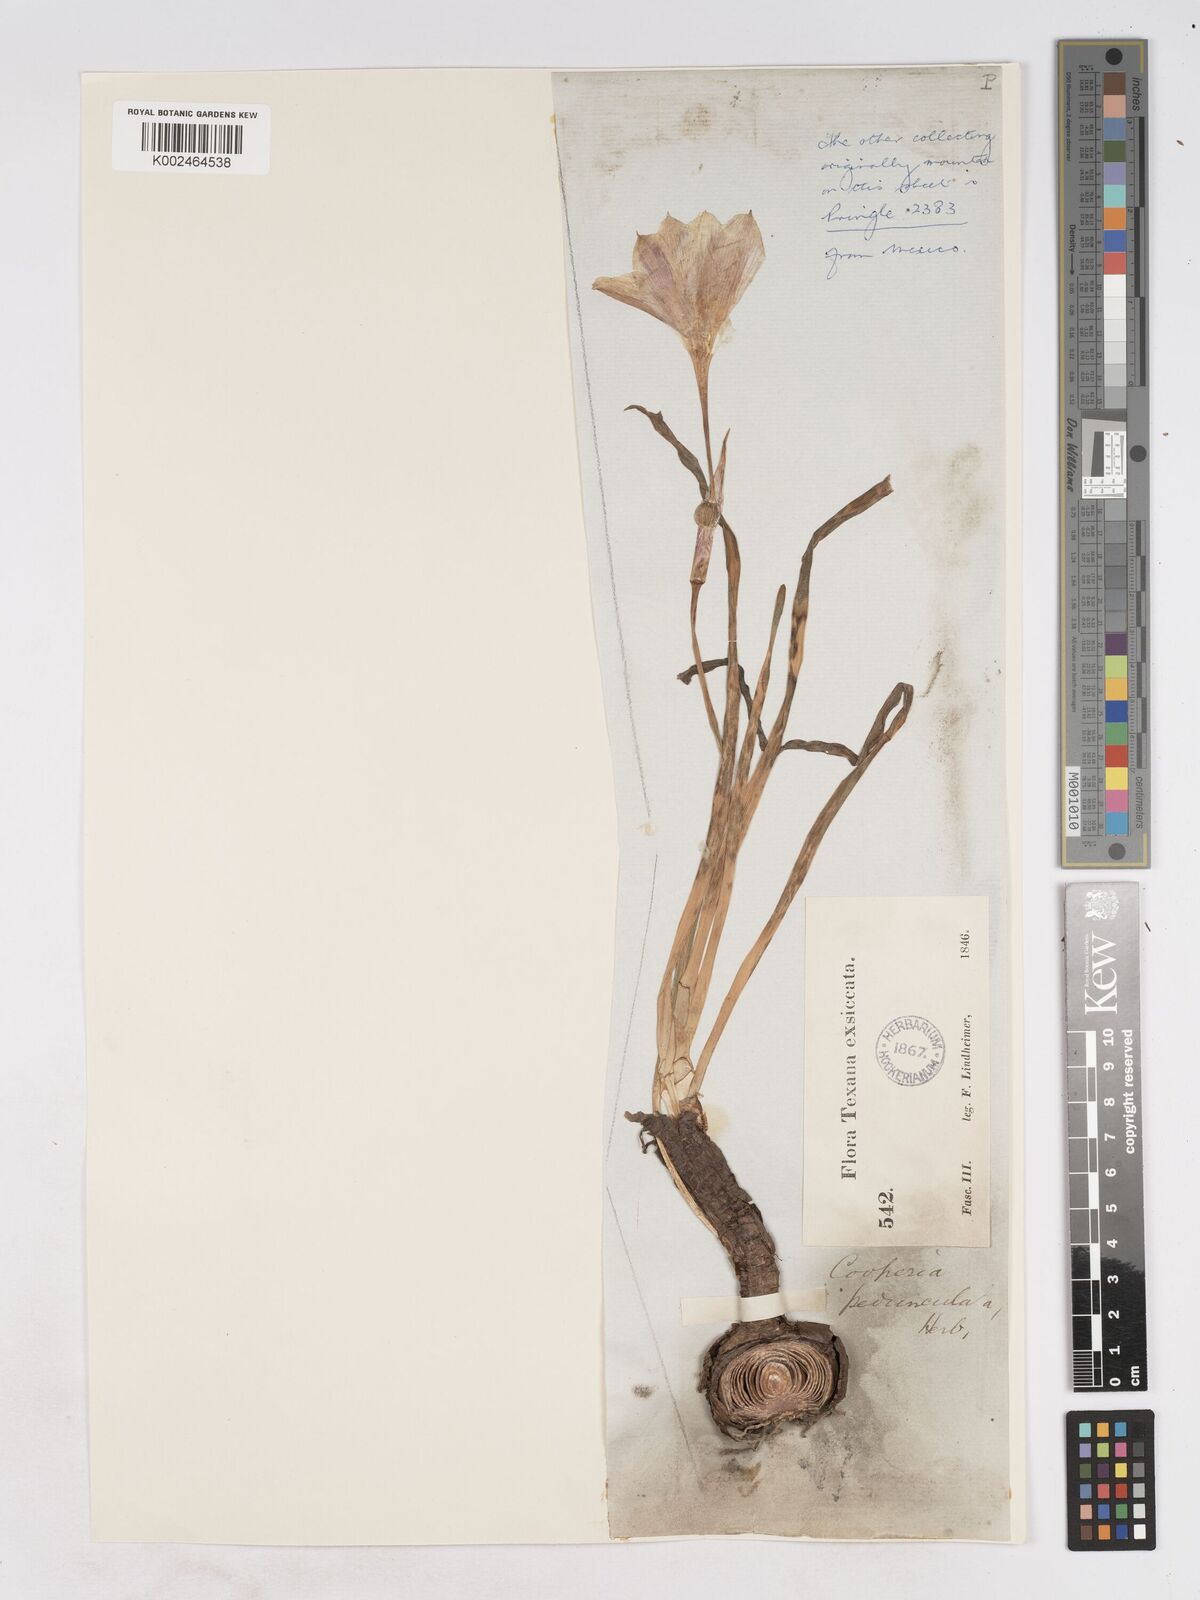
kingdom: Plantae
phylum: Tracheophyta
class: Liliopsida
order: Asparagales
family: Amaryllidaceae
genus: Zephyranthes
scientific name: Zephyranthes drummondii
